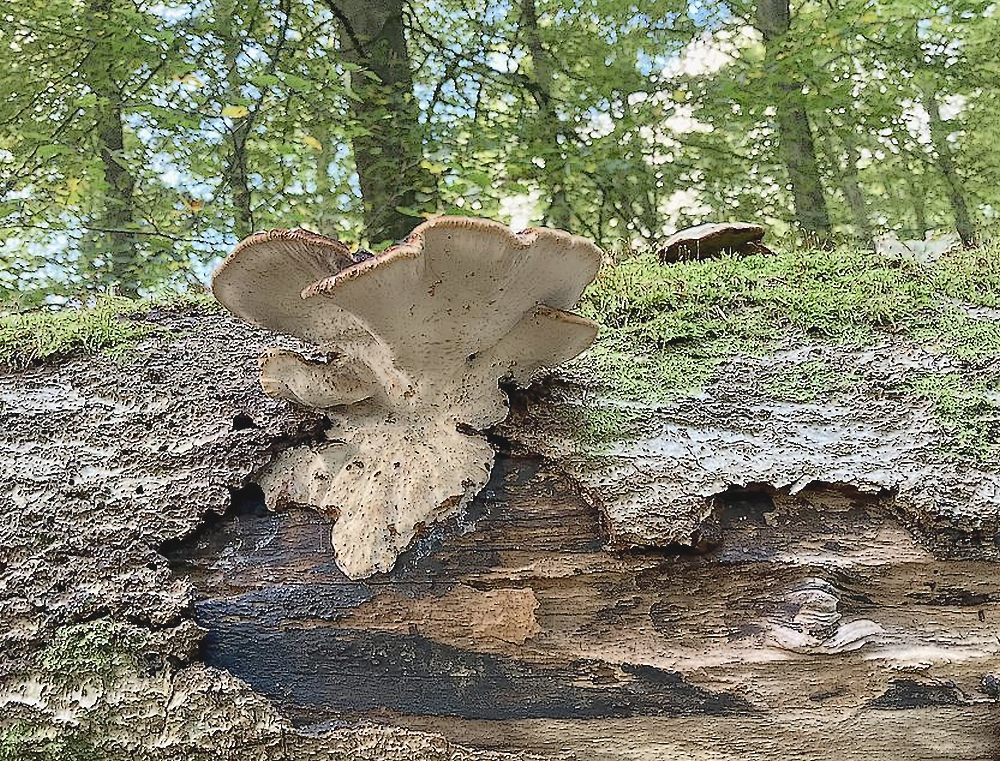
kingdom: Fungi
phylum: Basidiomycota
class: Agaricomycetes
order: Polyporales
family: Ischnodermataceae
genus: Ischnoderma
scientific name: Ischnoderma resinosum
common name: løv-tjæreporesvamp
